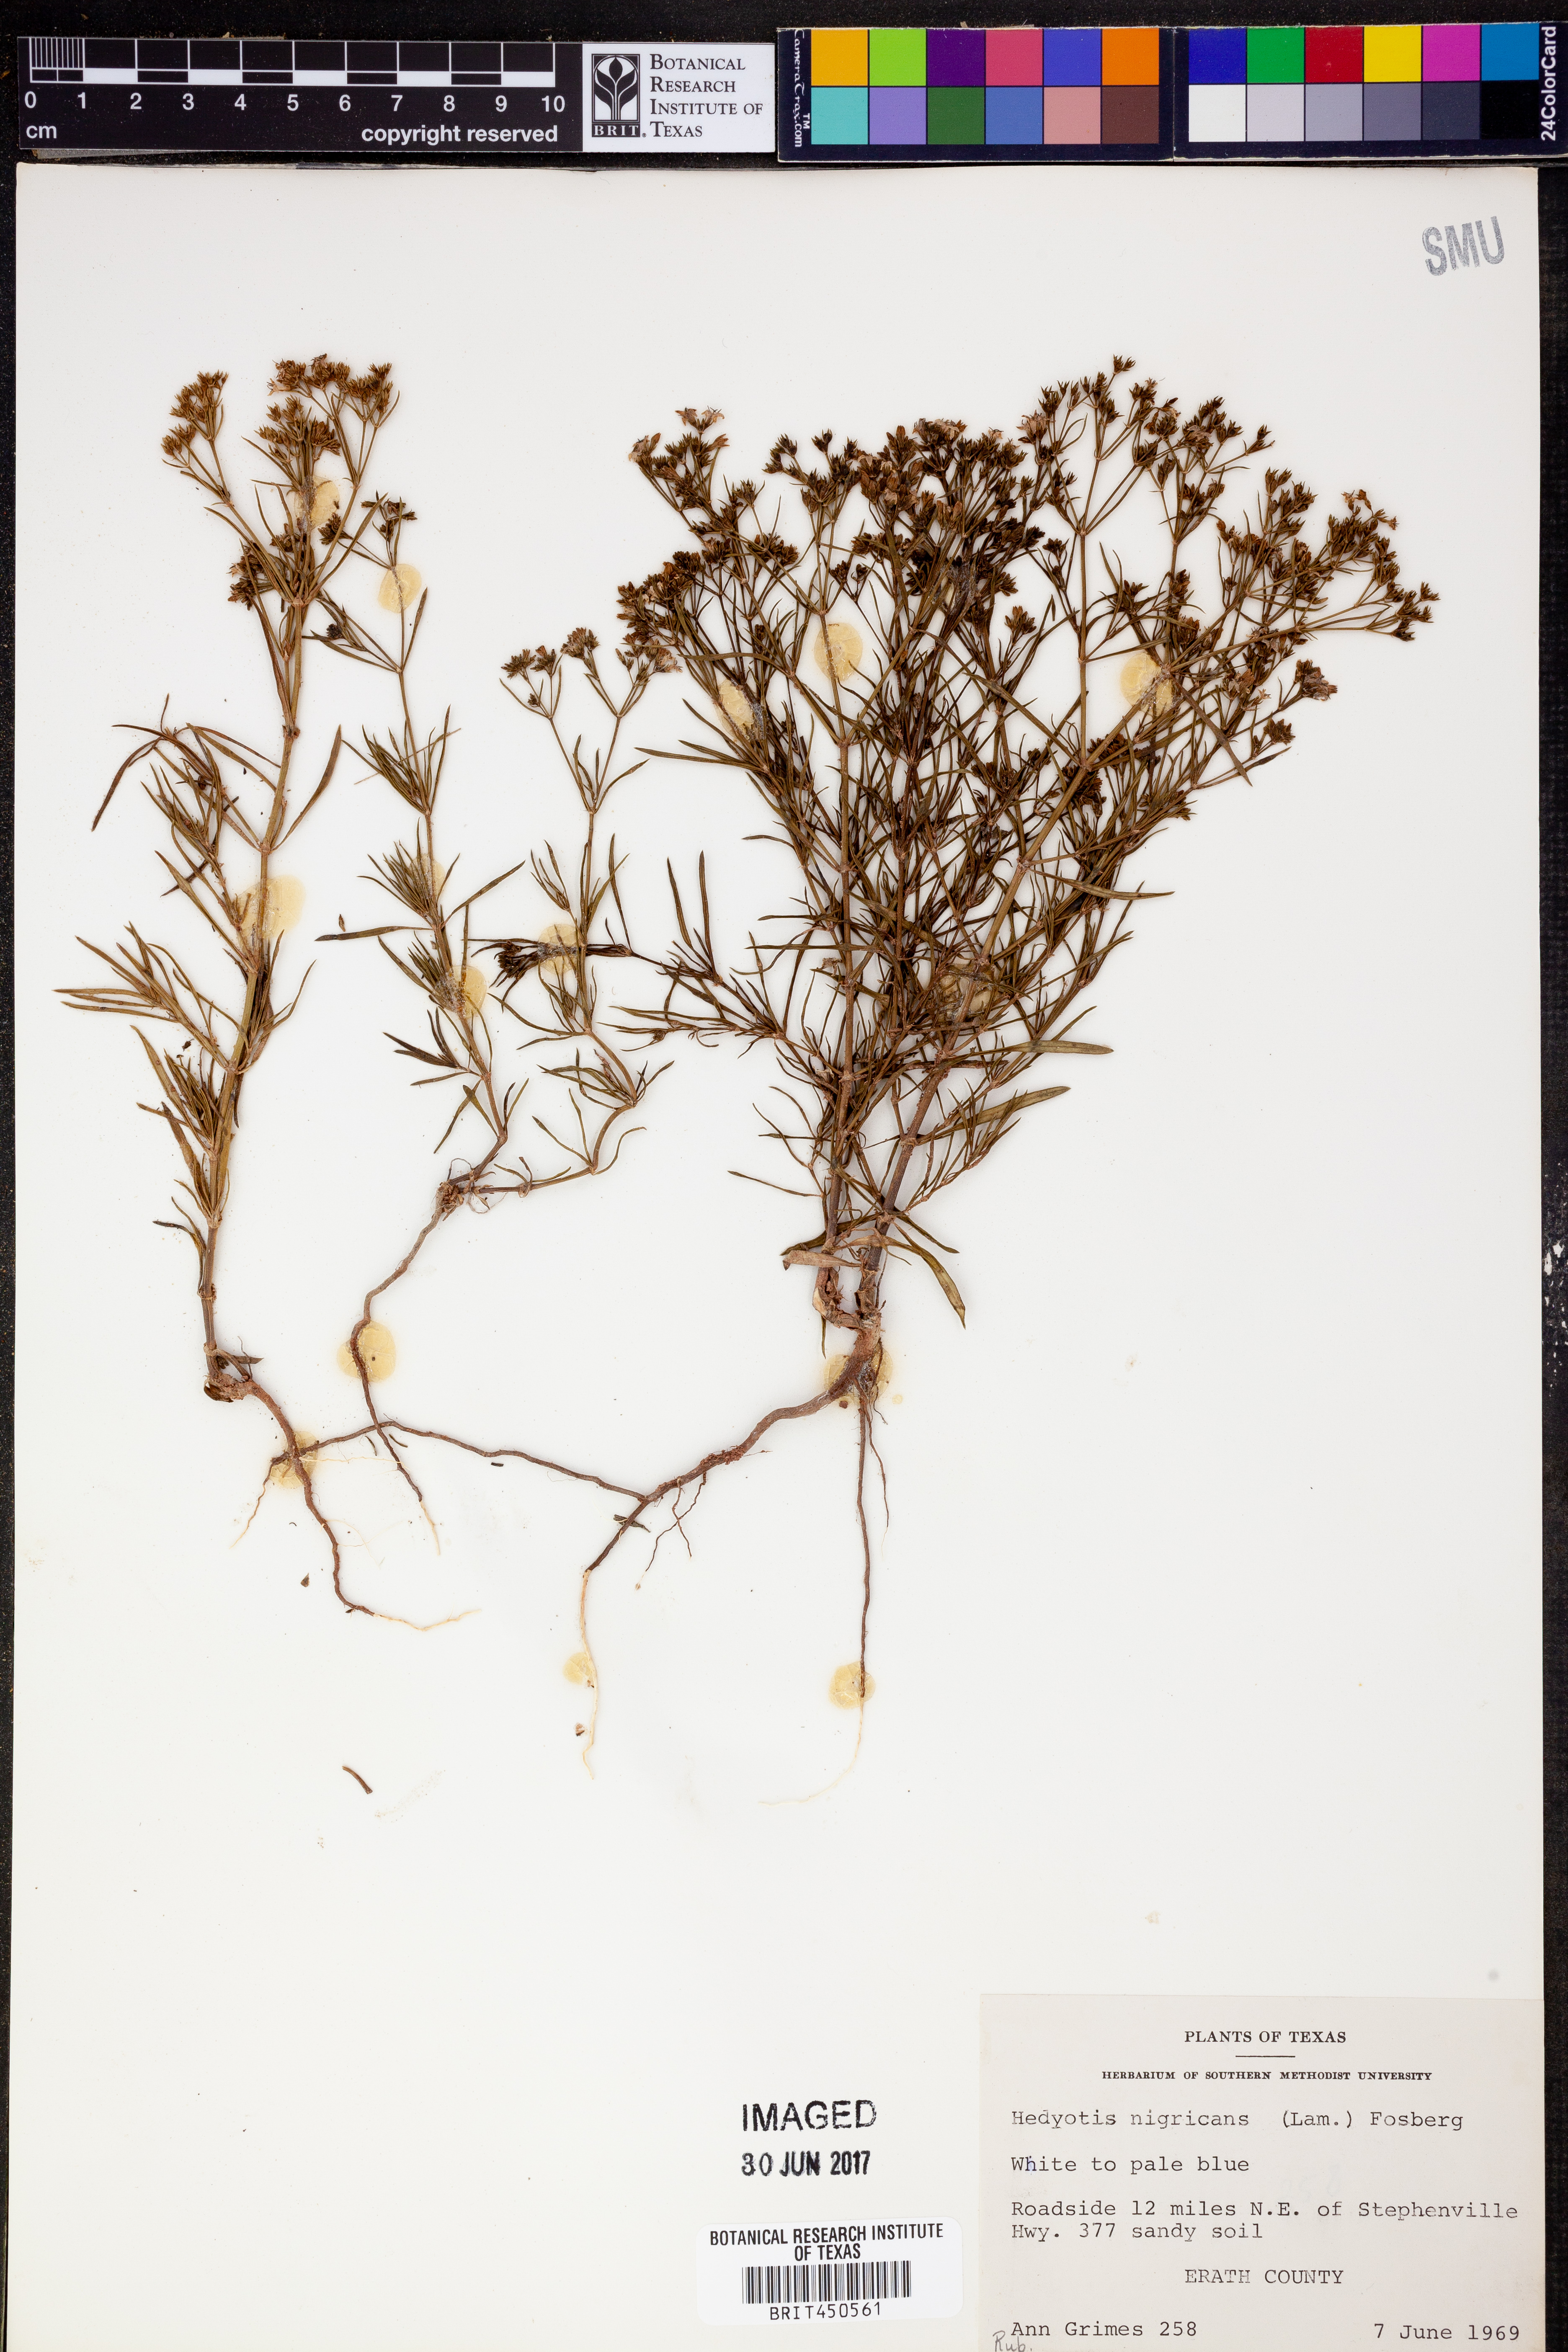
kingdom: Plantae
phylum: Tracheophyta
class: Magnoliopsida
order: Gentianales
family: Rubiaceae
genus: Stenaria
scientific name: Stenaria nigricans
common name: Diamondflowers
